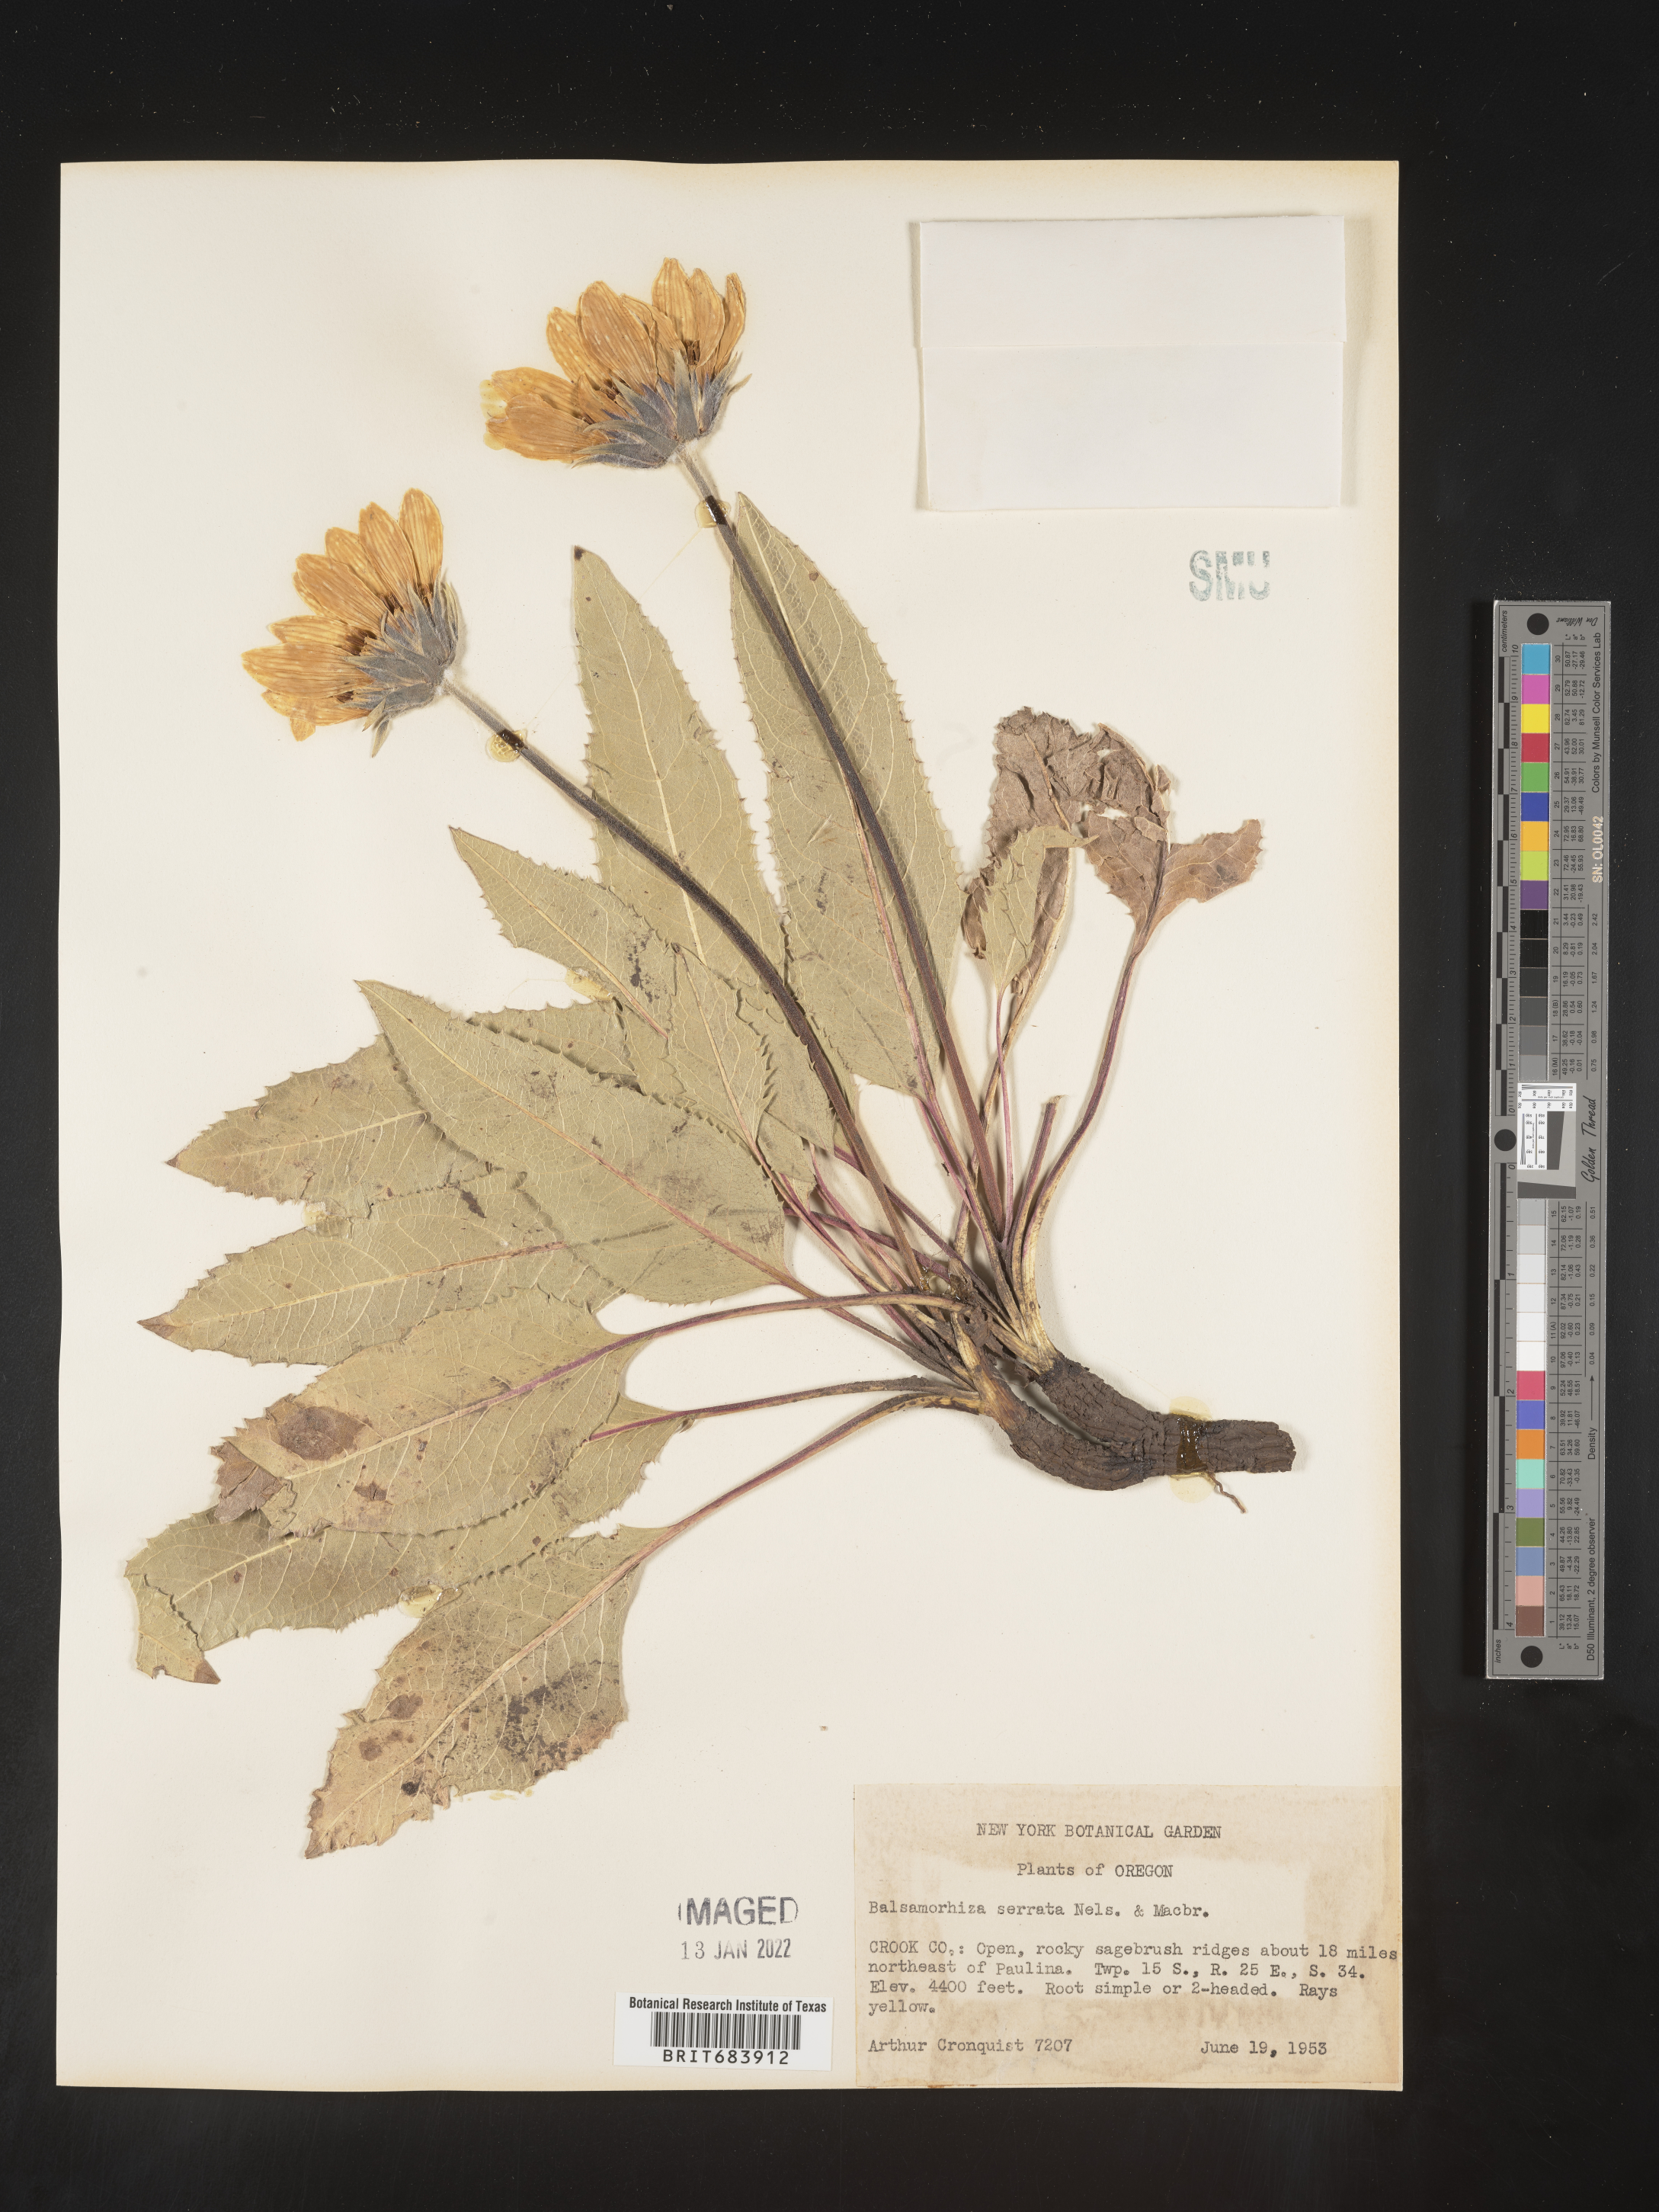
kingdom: Plantae
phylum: Tracheophyta
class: Magnoliopsida
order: Asterales
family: Asteraceae
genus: Balsamorhiza
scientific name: Balsamorhiza serrata
